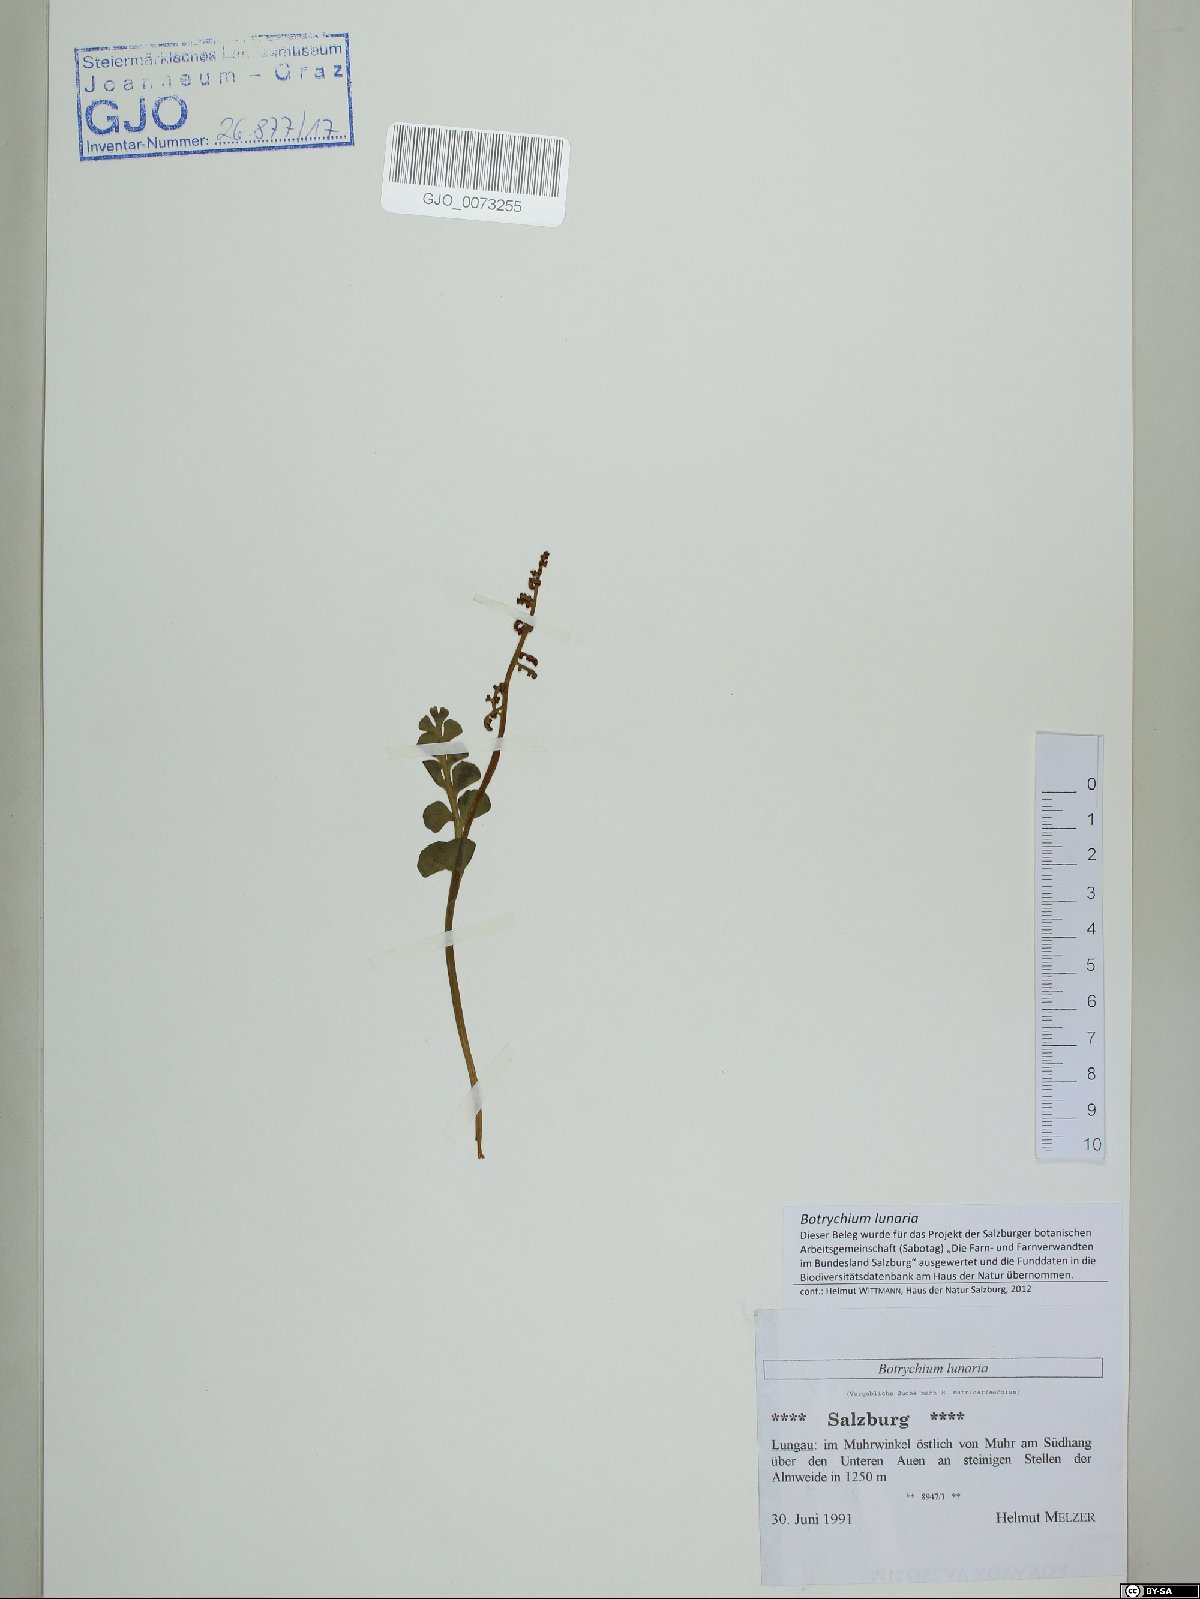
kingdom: Plantae
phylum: Tracheophyta
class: Polypodiopsida
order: Ophioglossales
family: Ophioglossaceae
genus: Botrychium
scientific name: Botrychium lunaria
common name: Moonwort
